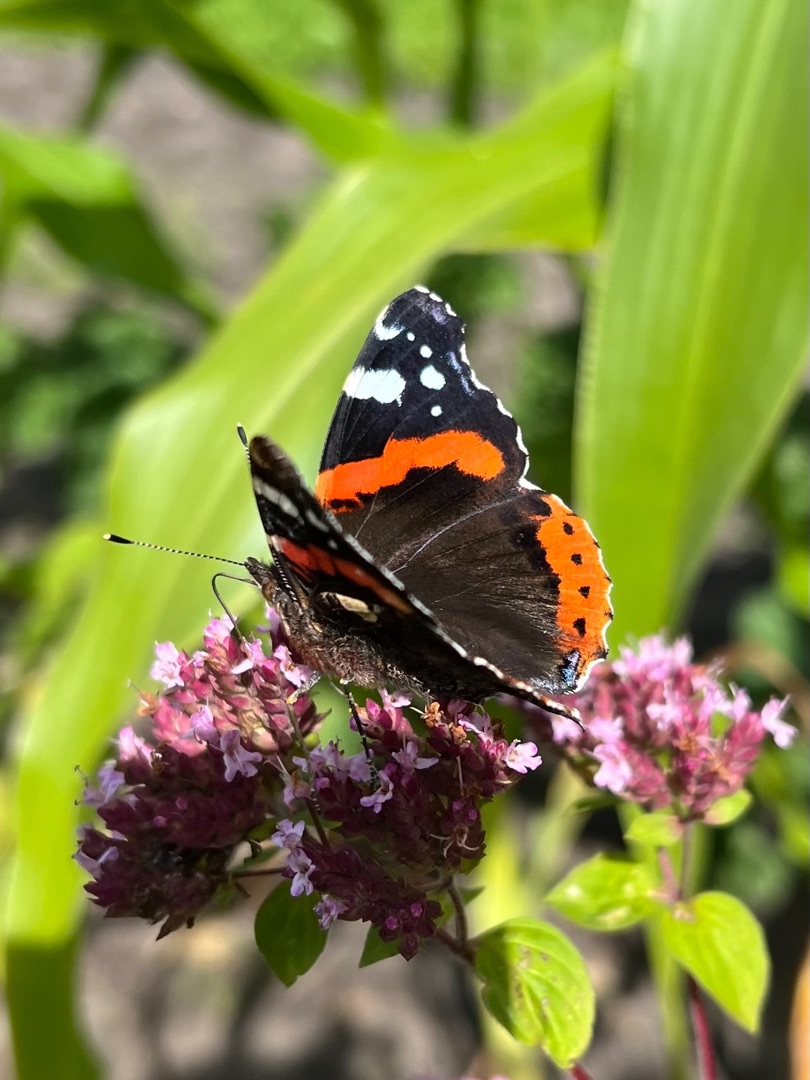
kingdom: Animalia
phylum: Arthropoda
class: Insecta
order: Lepidoptera
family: Nymphalidae
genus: Vanessa
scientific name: Vanessa atalanta
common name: Admiral
